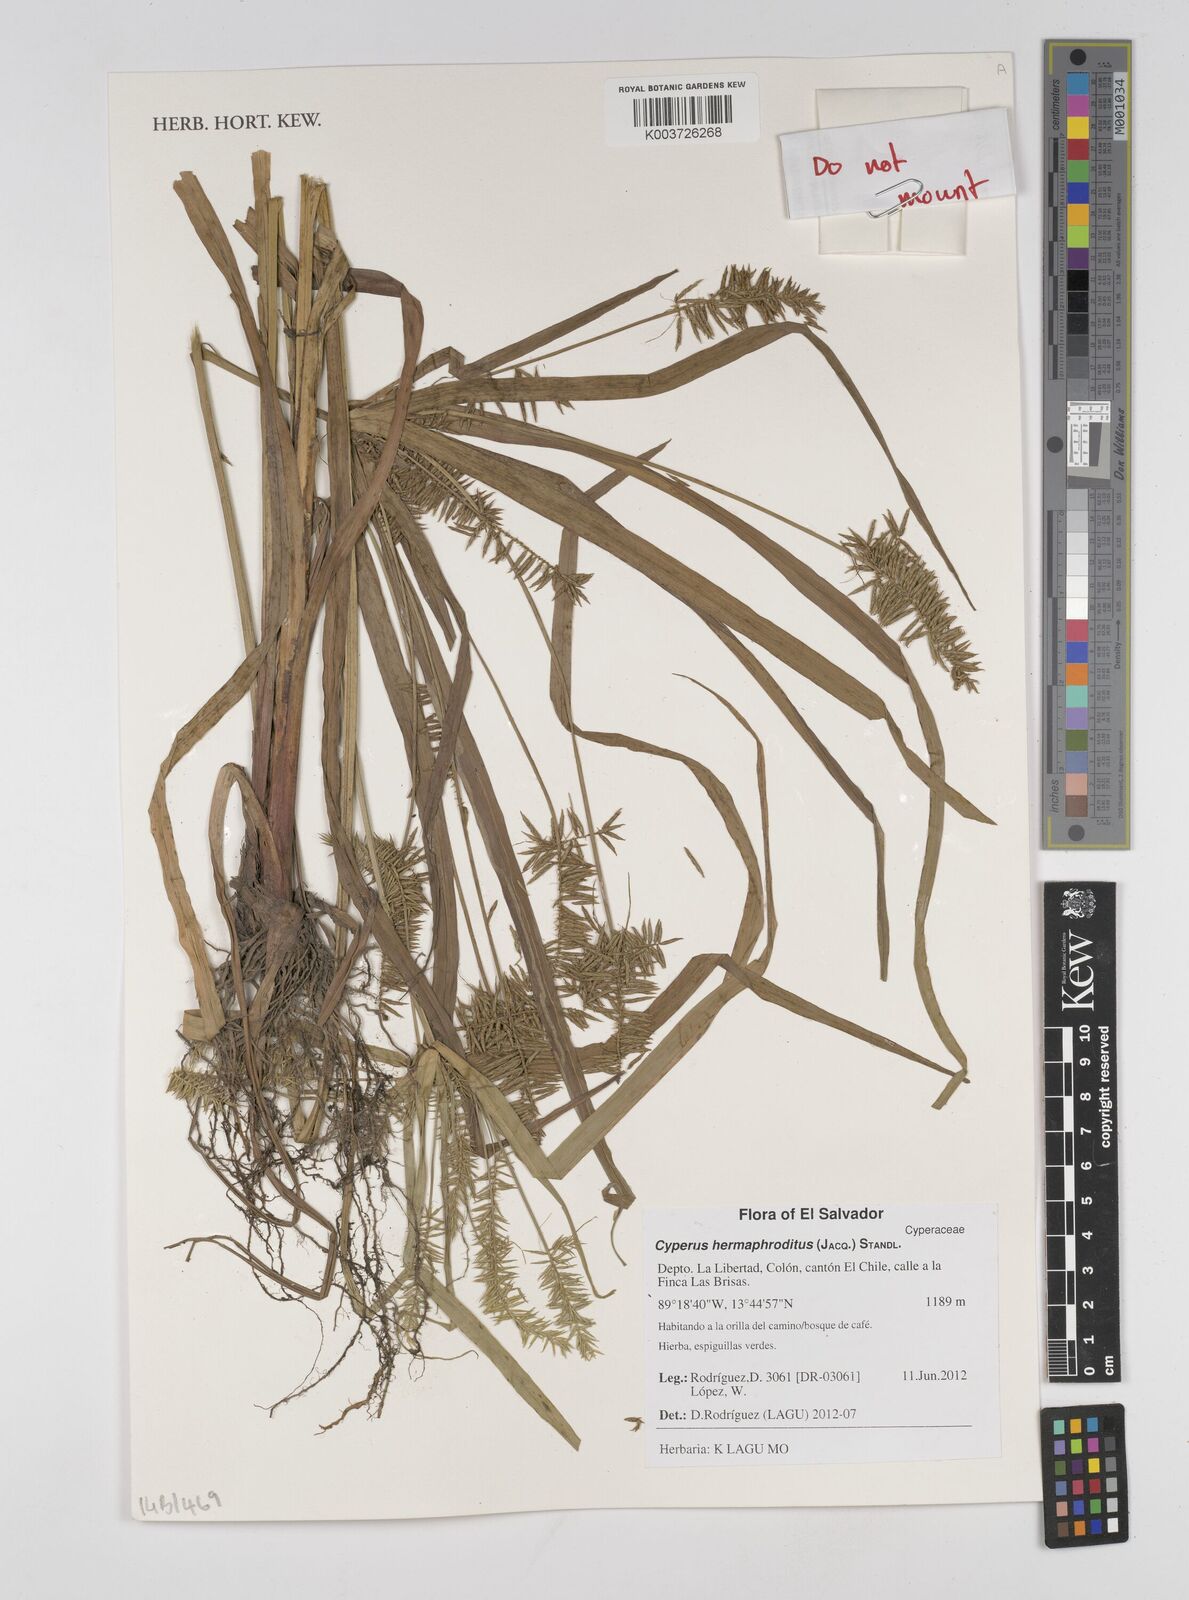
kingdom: Plantae
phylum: Tracheophyta
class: Liliopsida
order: Poales
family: Cyperaceae
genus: Cyperus
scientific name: Cyperus hermaphroditus
